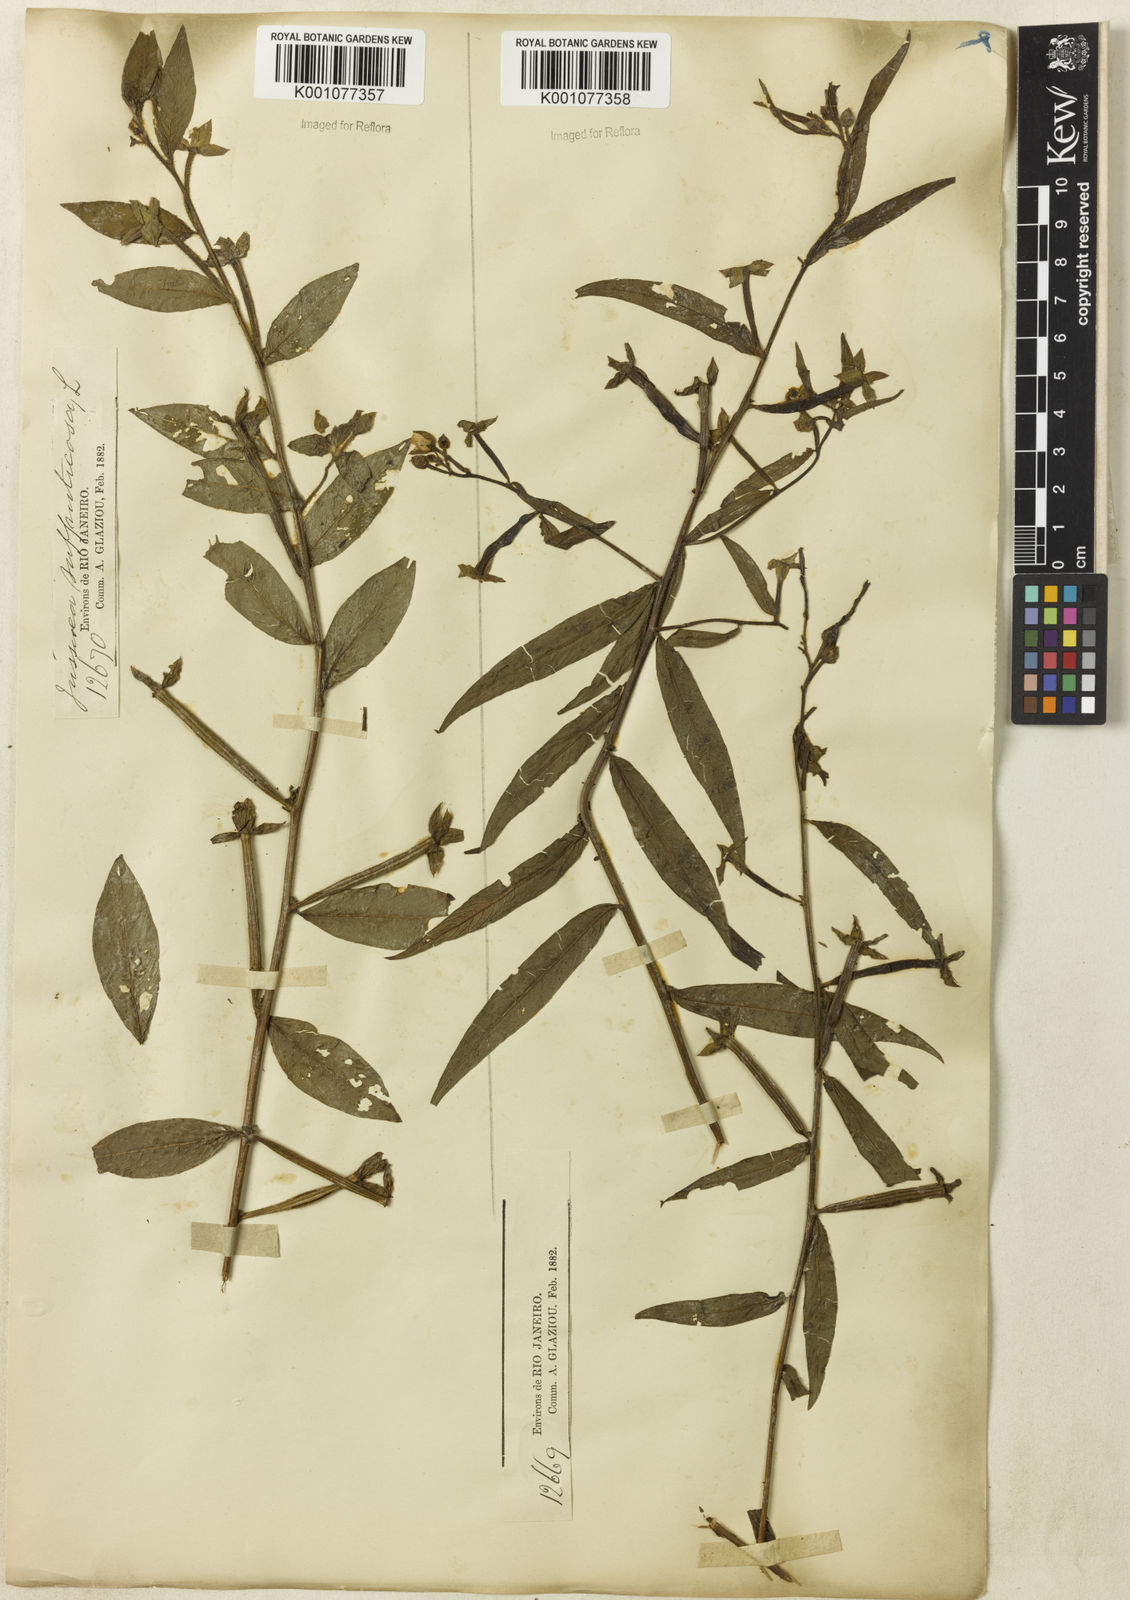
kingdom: Plantae
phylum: Tracheophyta
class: Magnoliopsida
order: Myrtales
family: Onagraceae
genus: Ludwigia
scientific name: Ludwigia octovalvis
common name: Water-primrose
